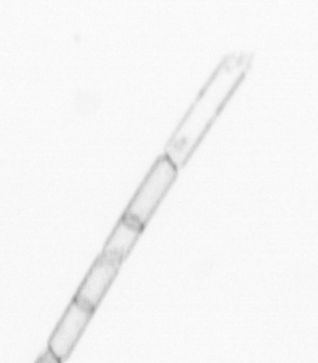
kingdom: Chromista
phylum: Ochrophyta
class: Bacillariophyceae
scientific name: Bacillariophyceae
